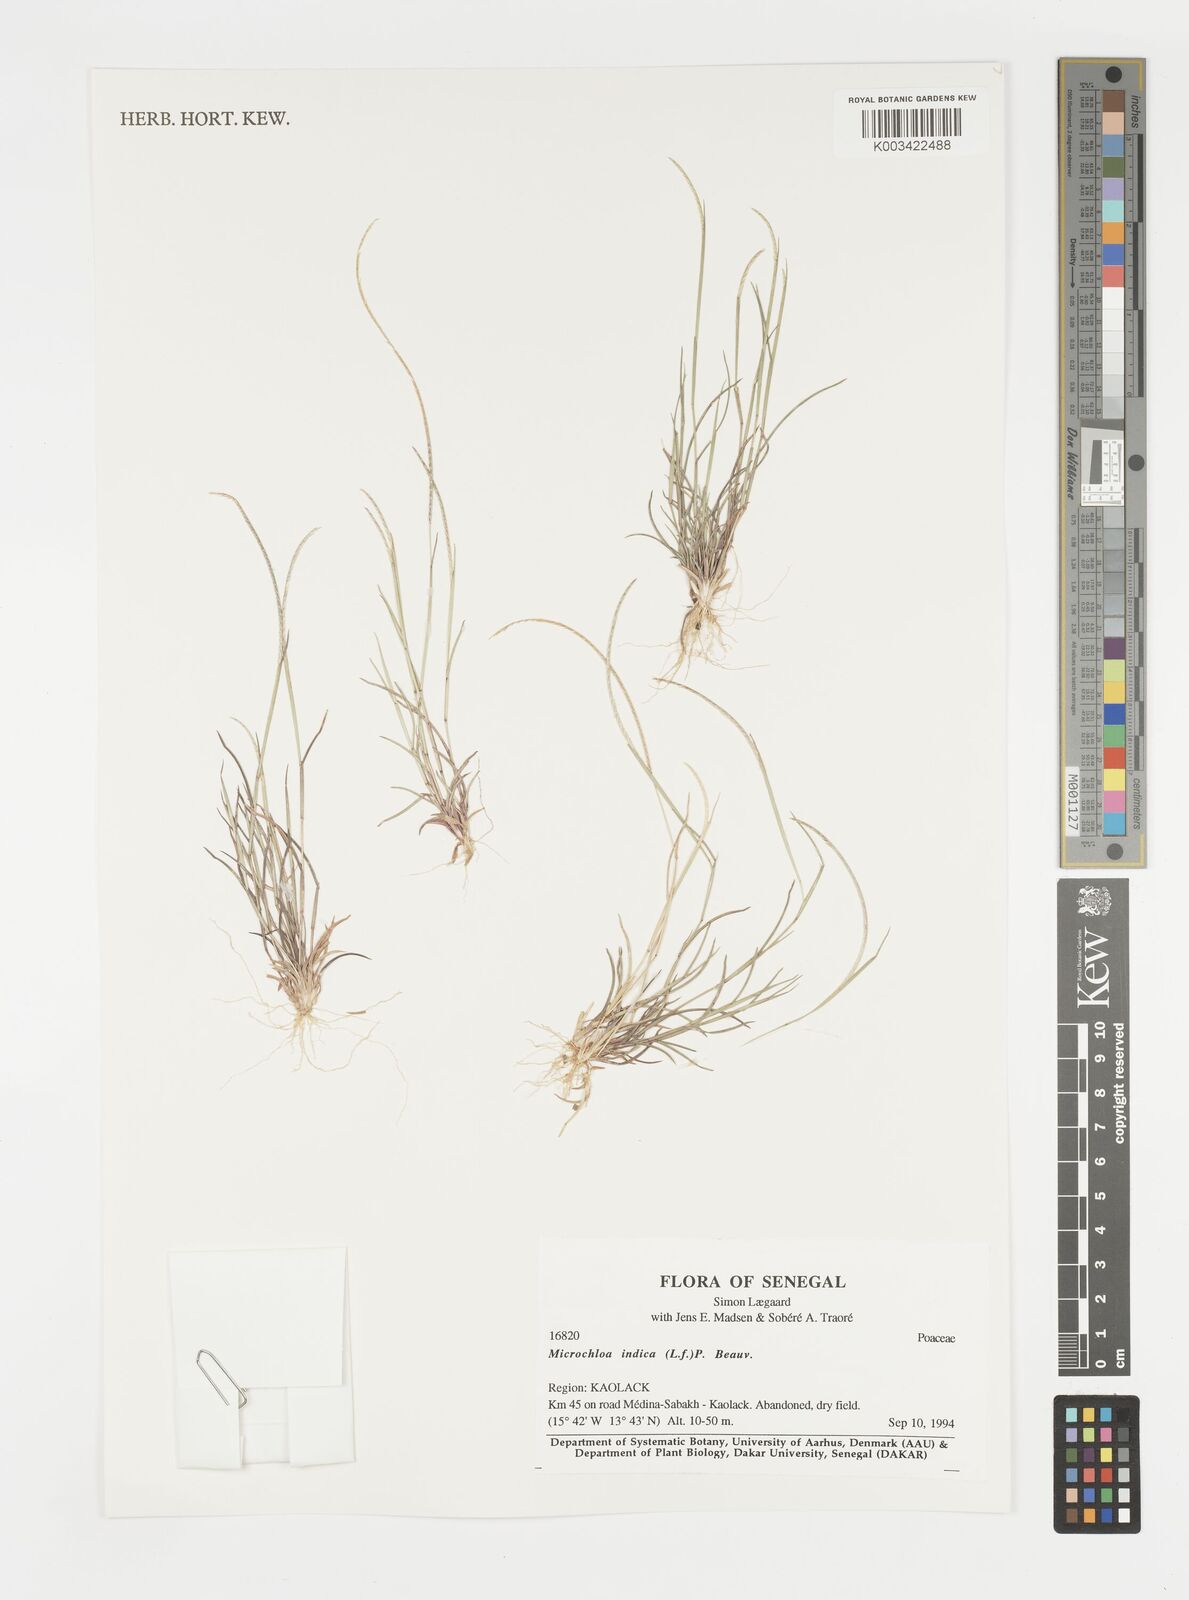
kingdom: Plantae
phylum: Tracheophyta
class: Liliopsida
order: Poales
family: Poaceae
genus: Microchloa
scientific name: Microchloa indica
